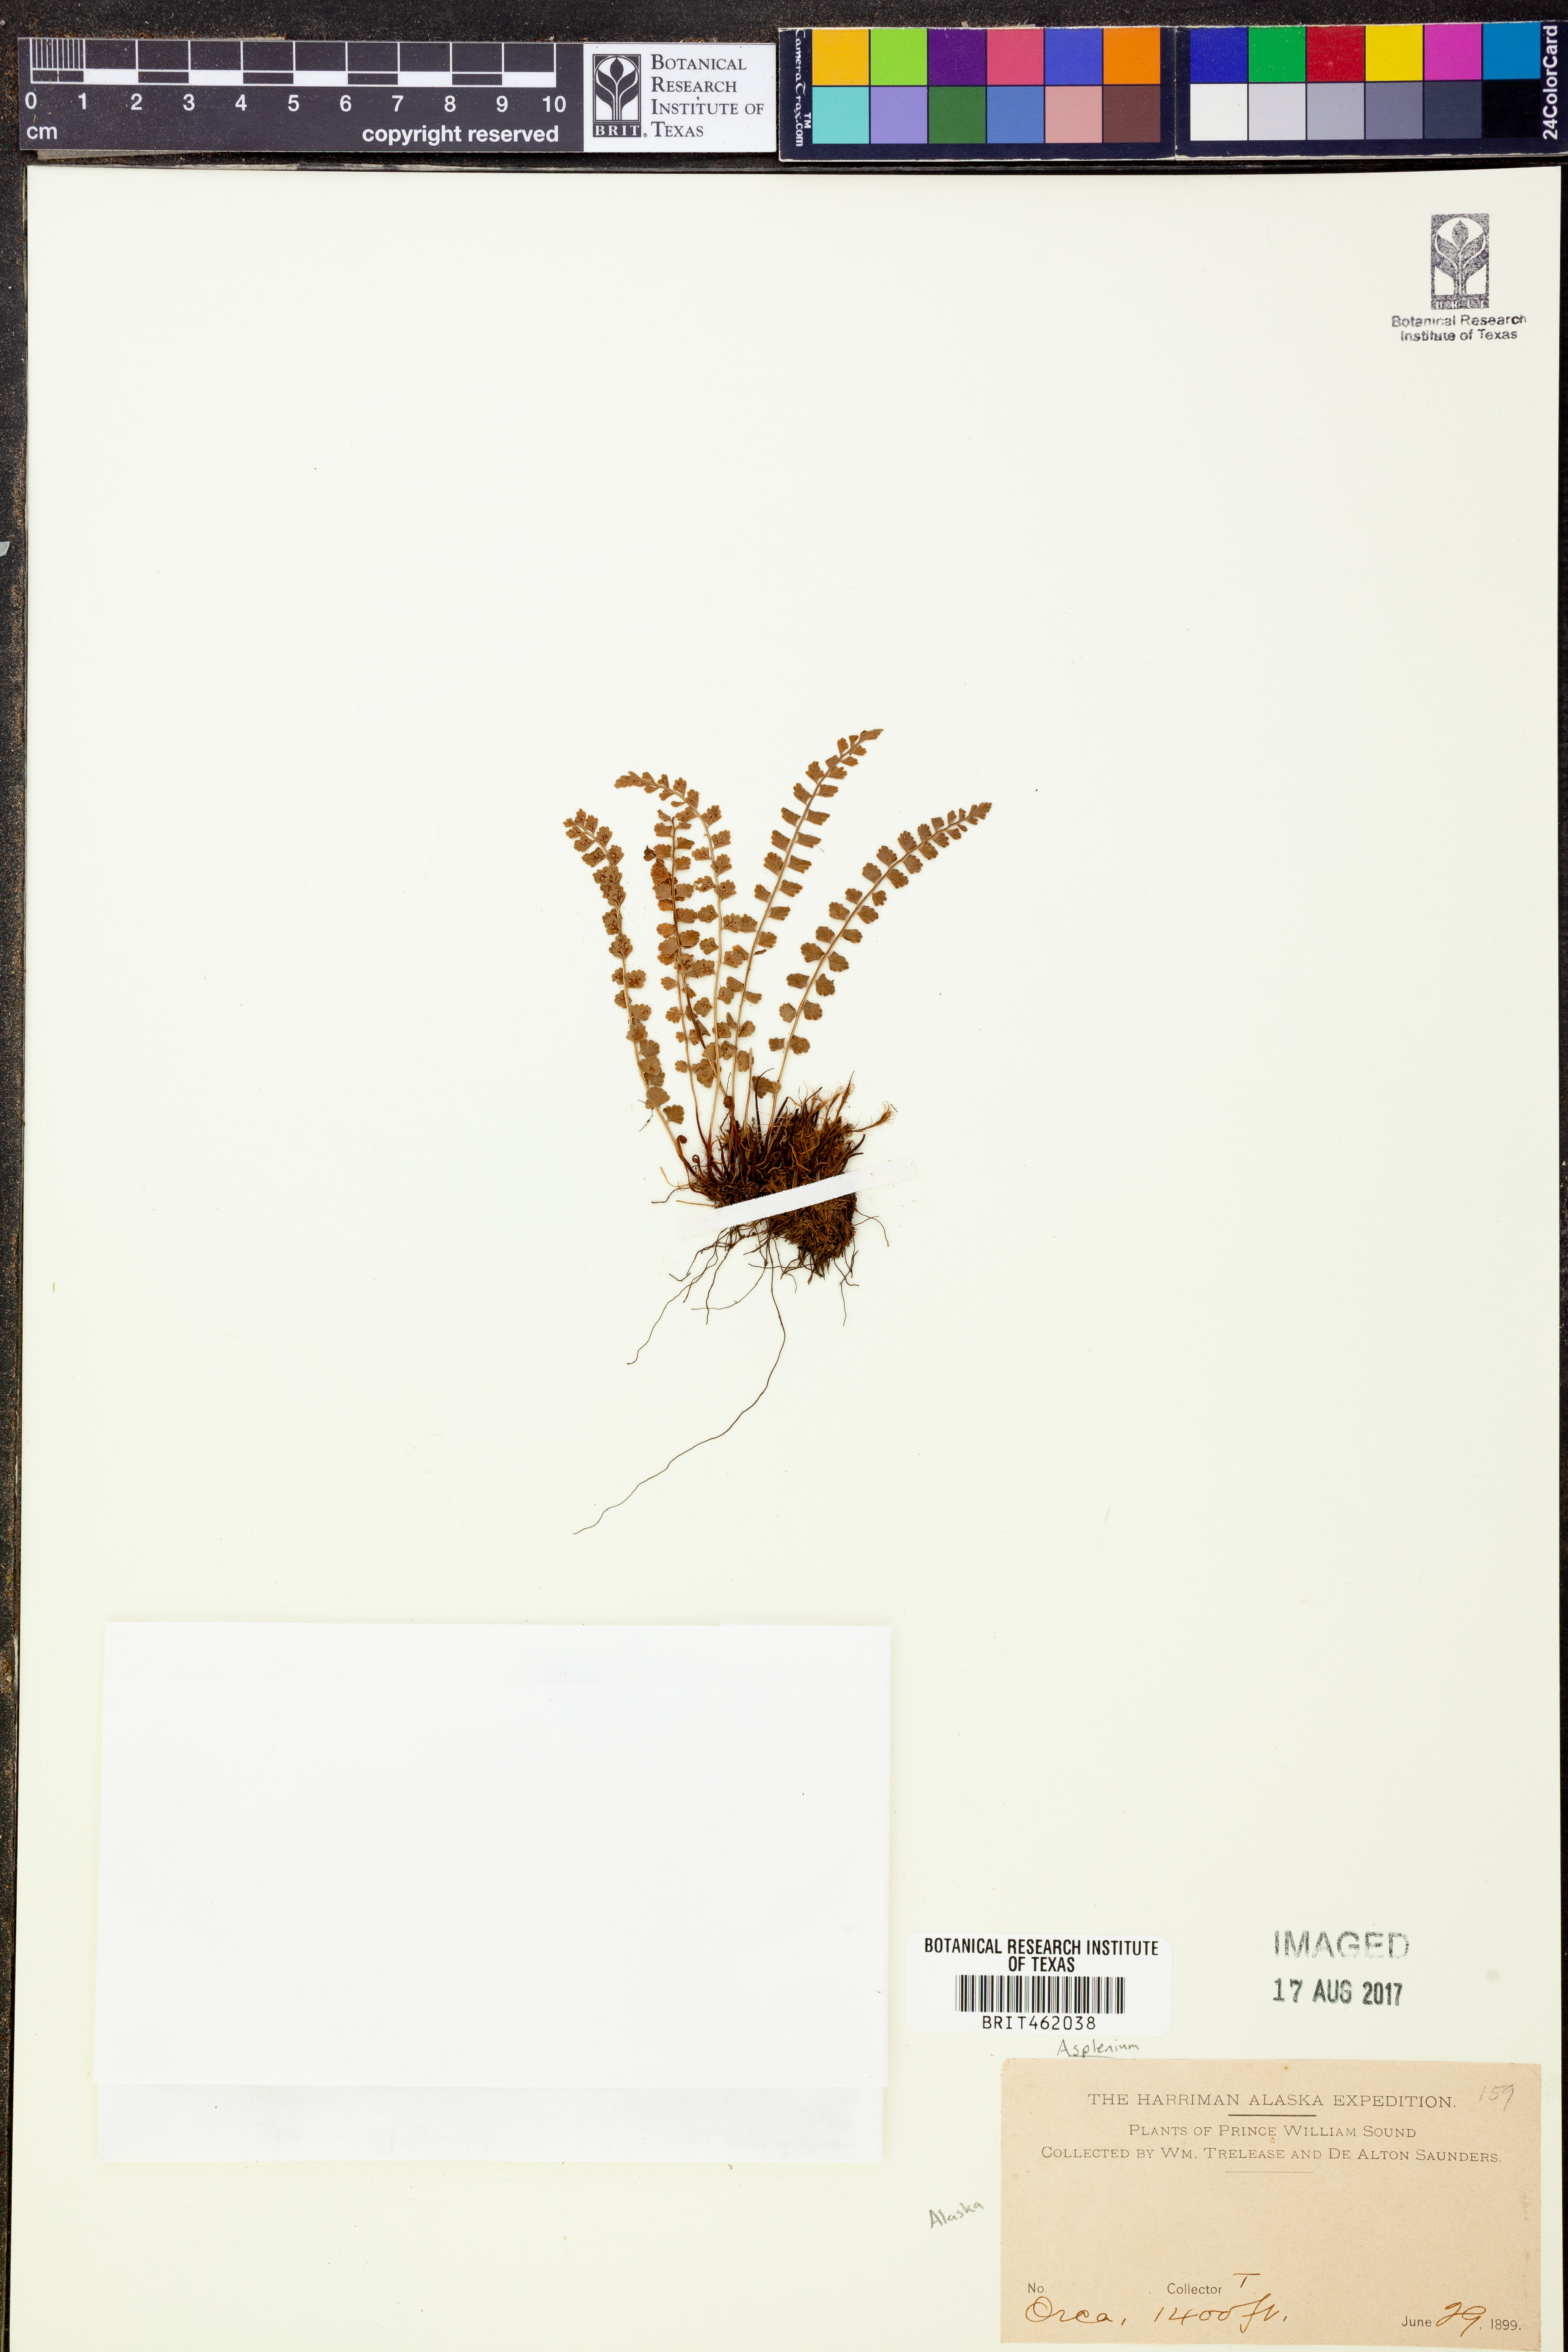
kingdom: Plantae
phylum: Tracheophyta
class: Polypodiopsida
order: Polypodiales
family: Aspleniaceae
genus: Asplenium
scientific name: Asplenium
